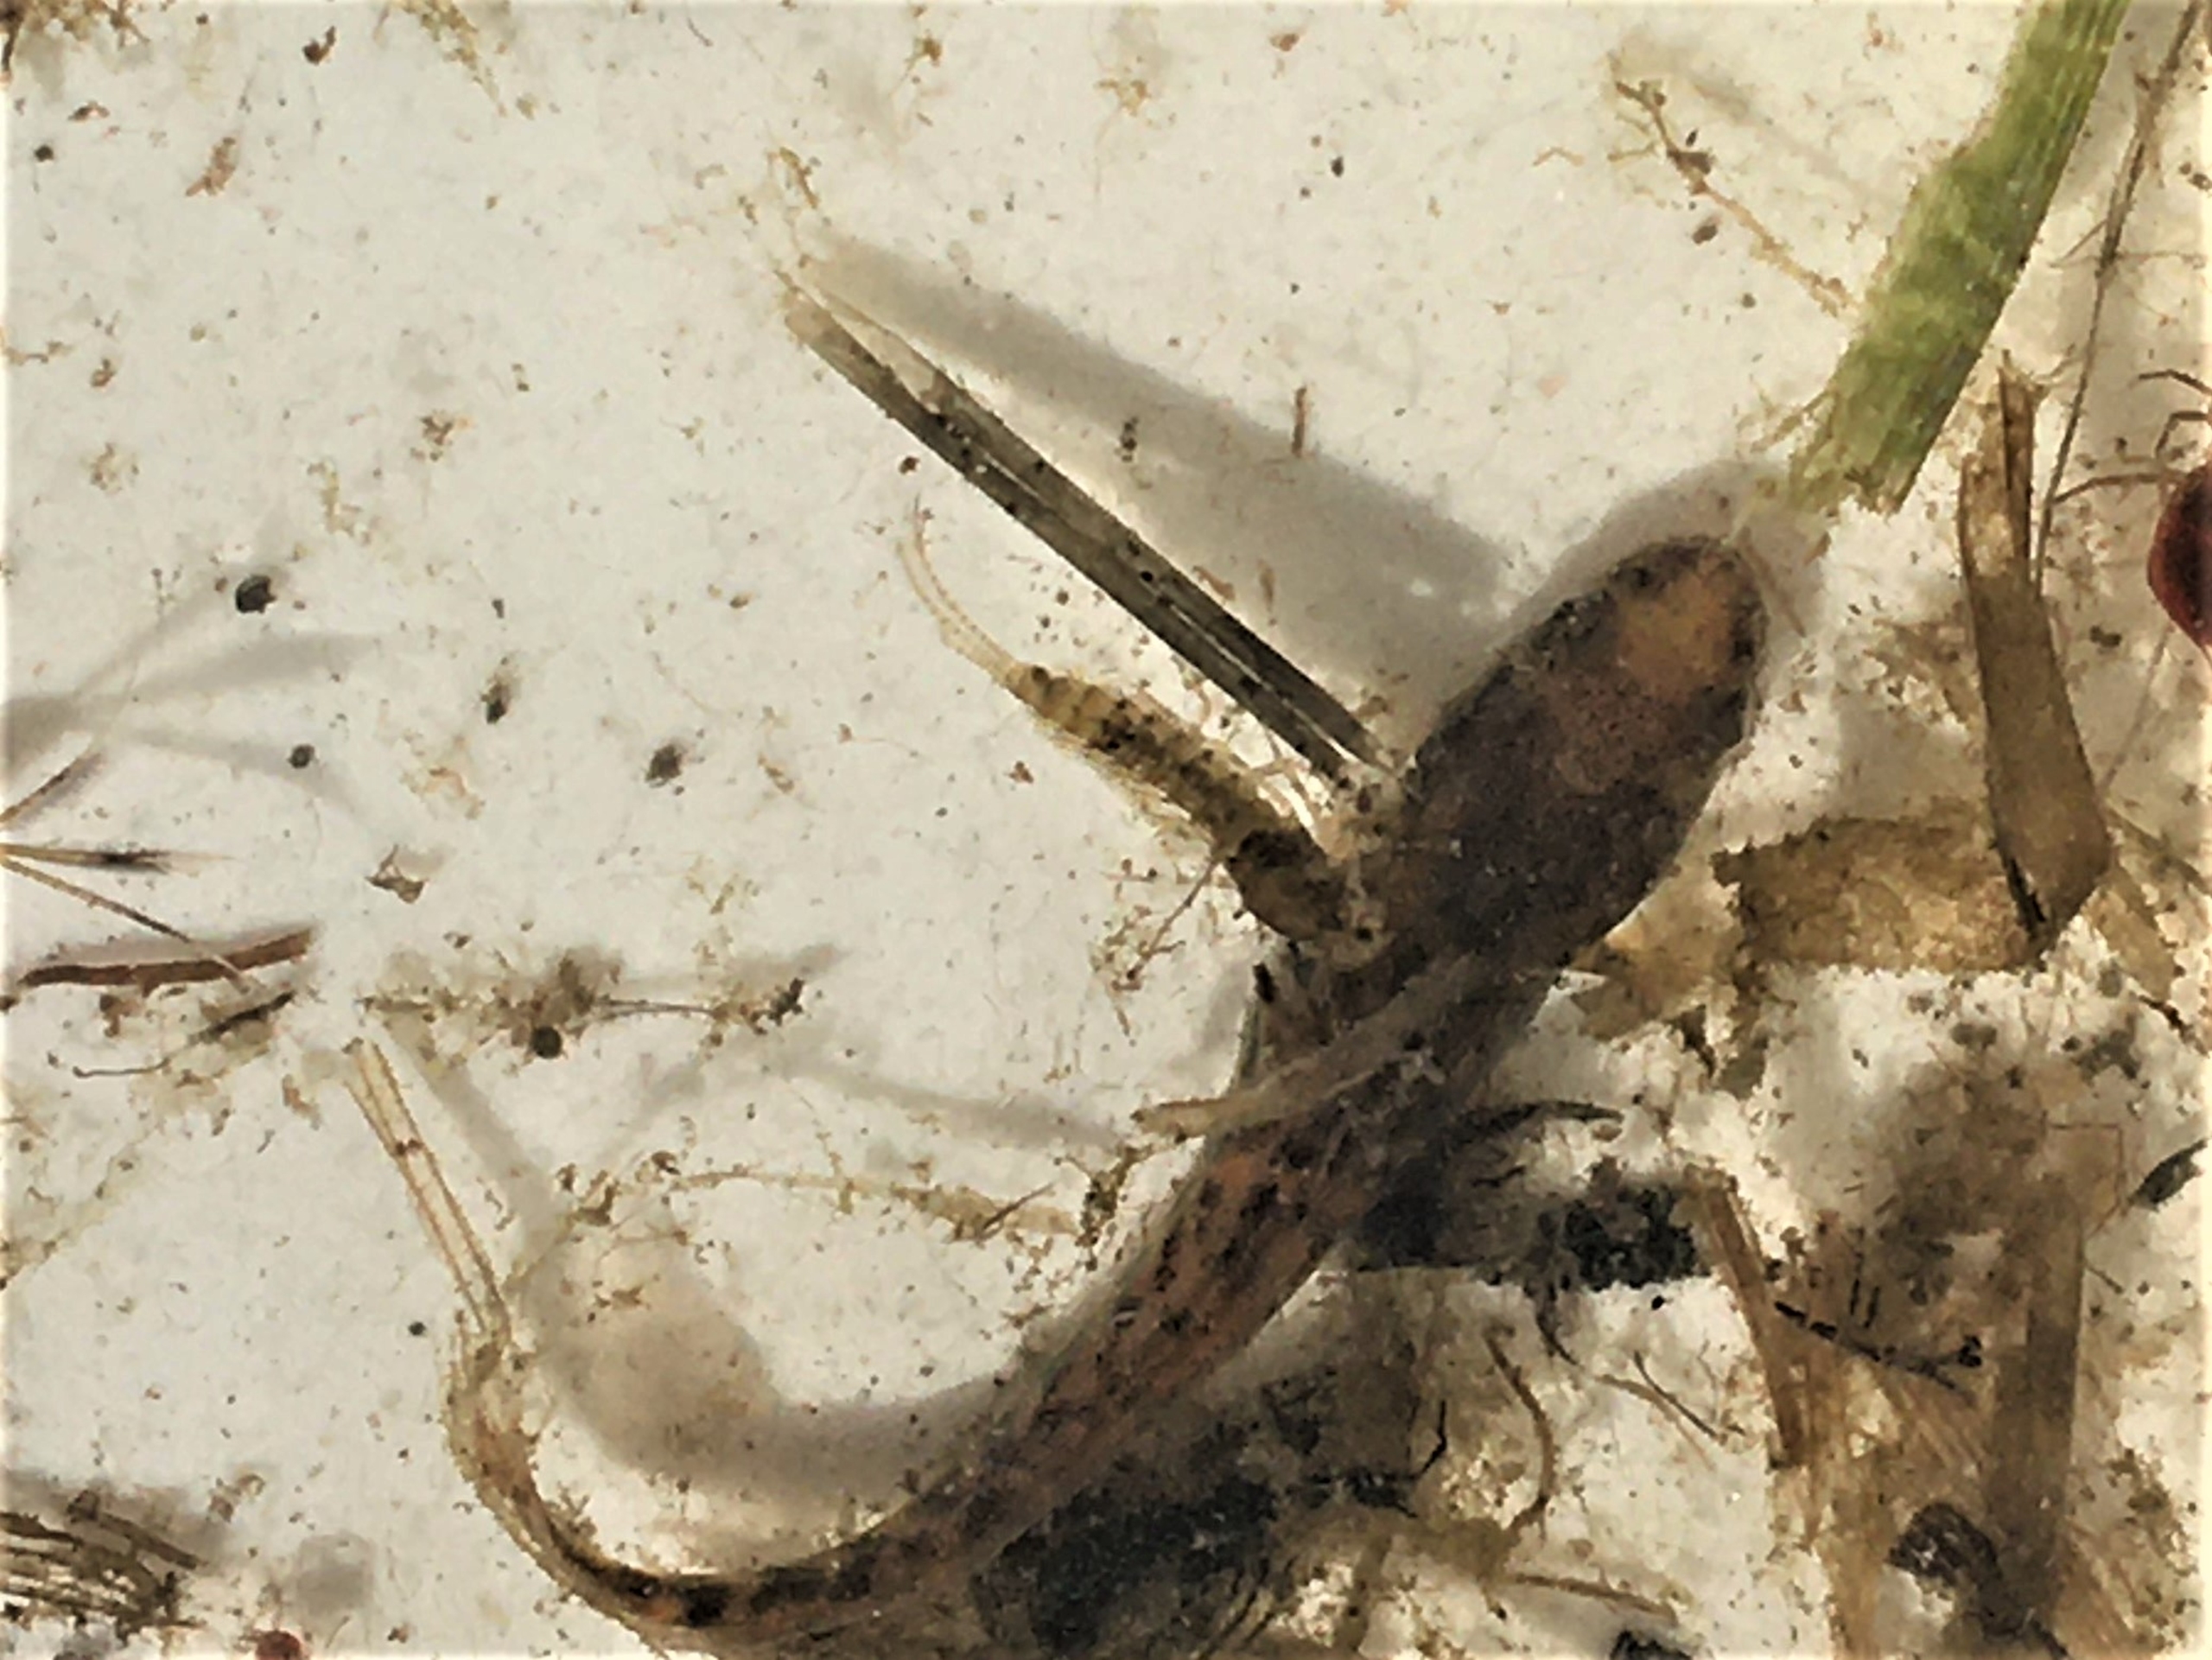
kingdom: Animalia
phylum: Chordata
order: Gadiformes
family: Lotidae
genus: Lota
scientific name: Lota lota
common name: Knude
